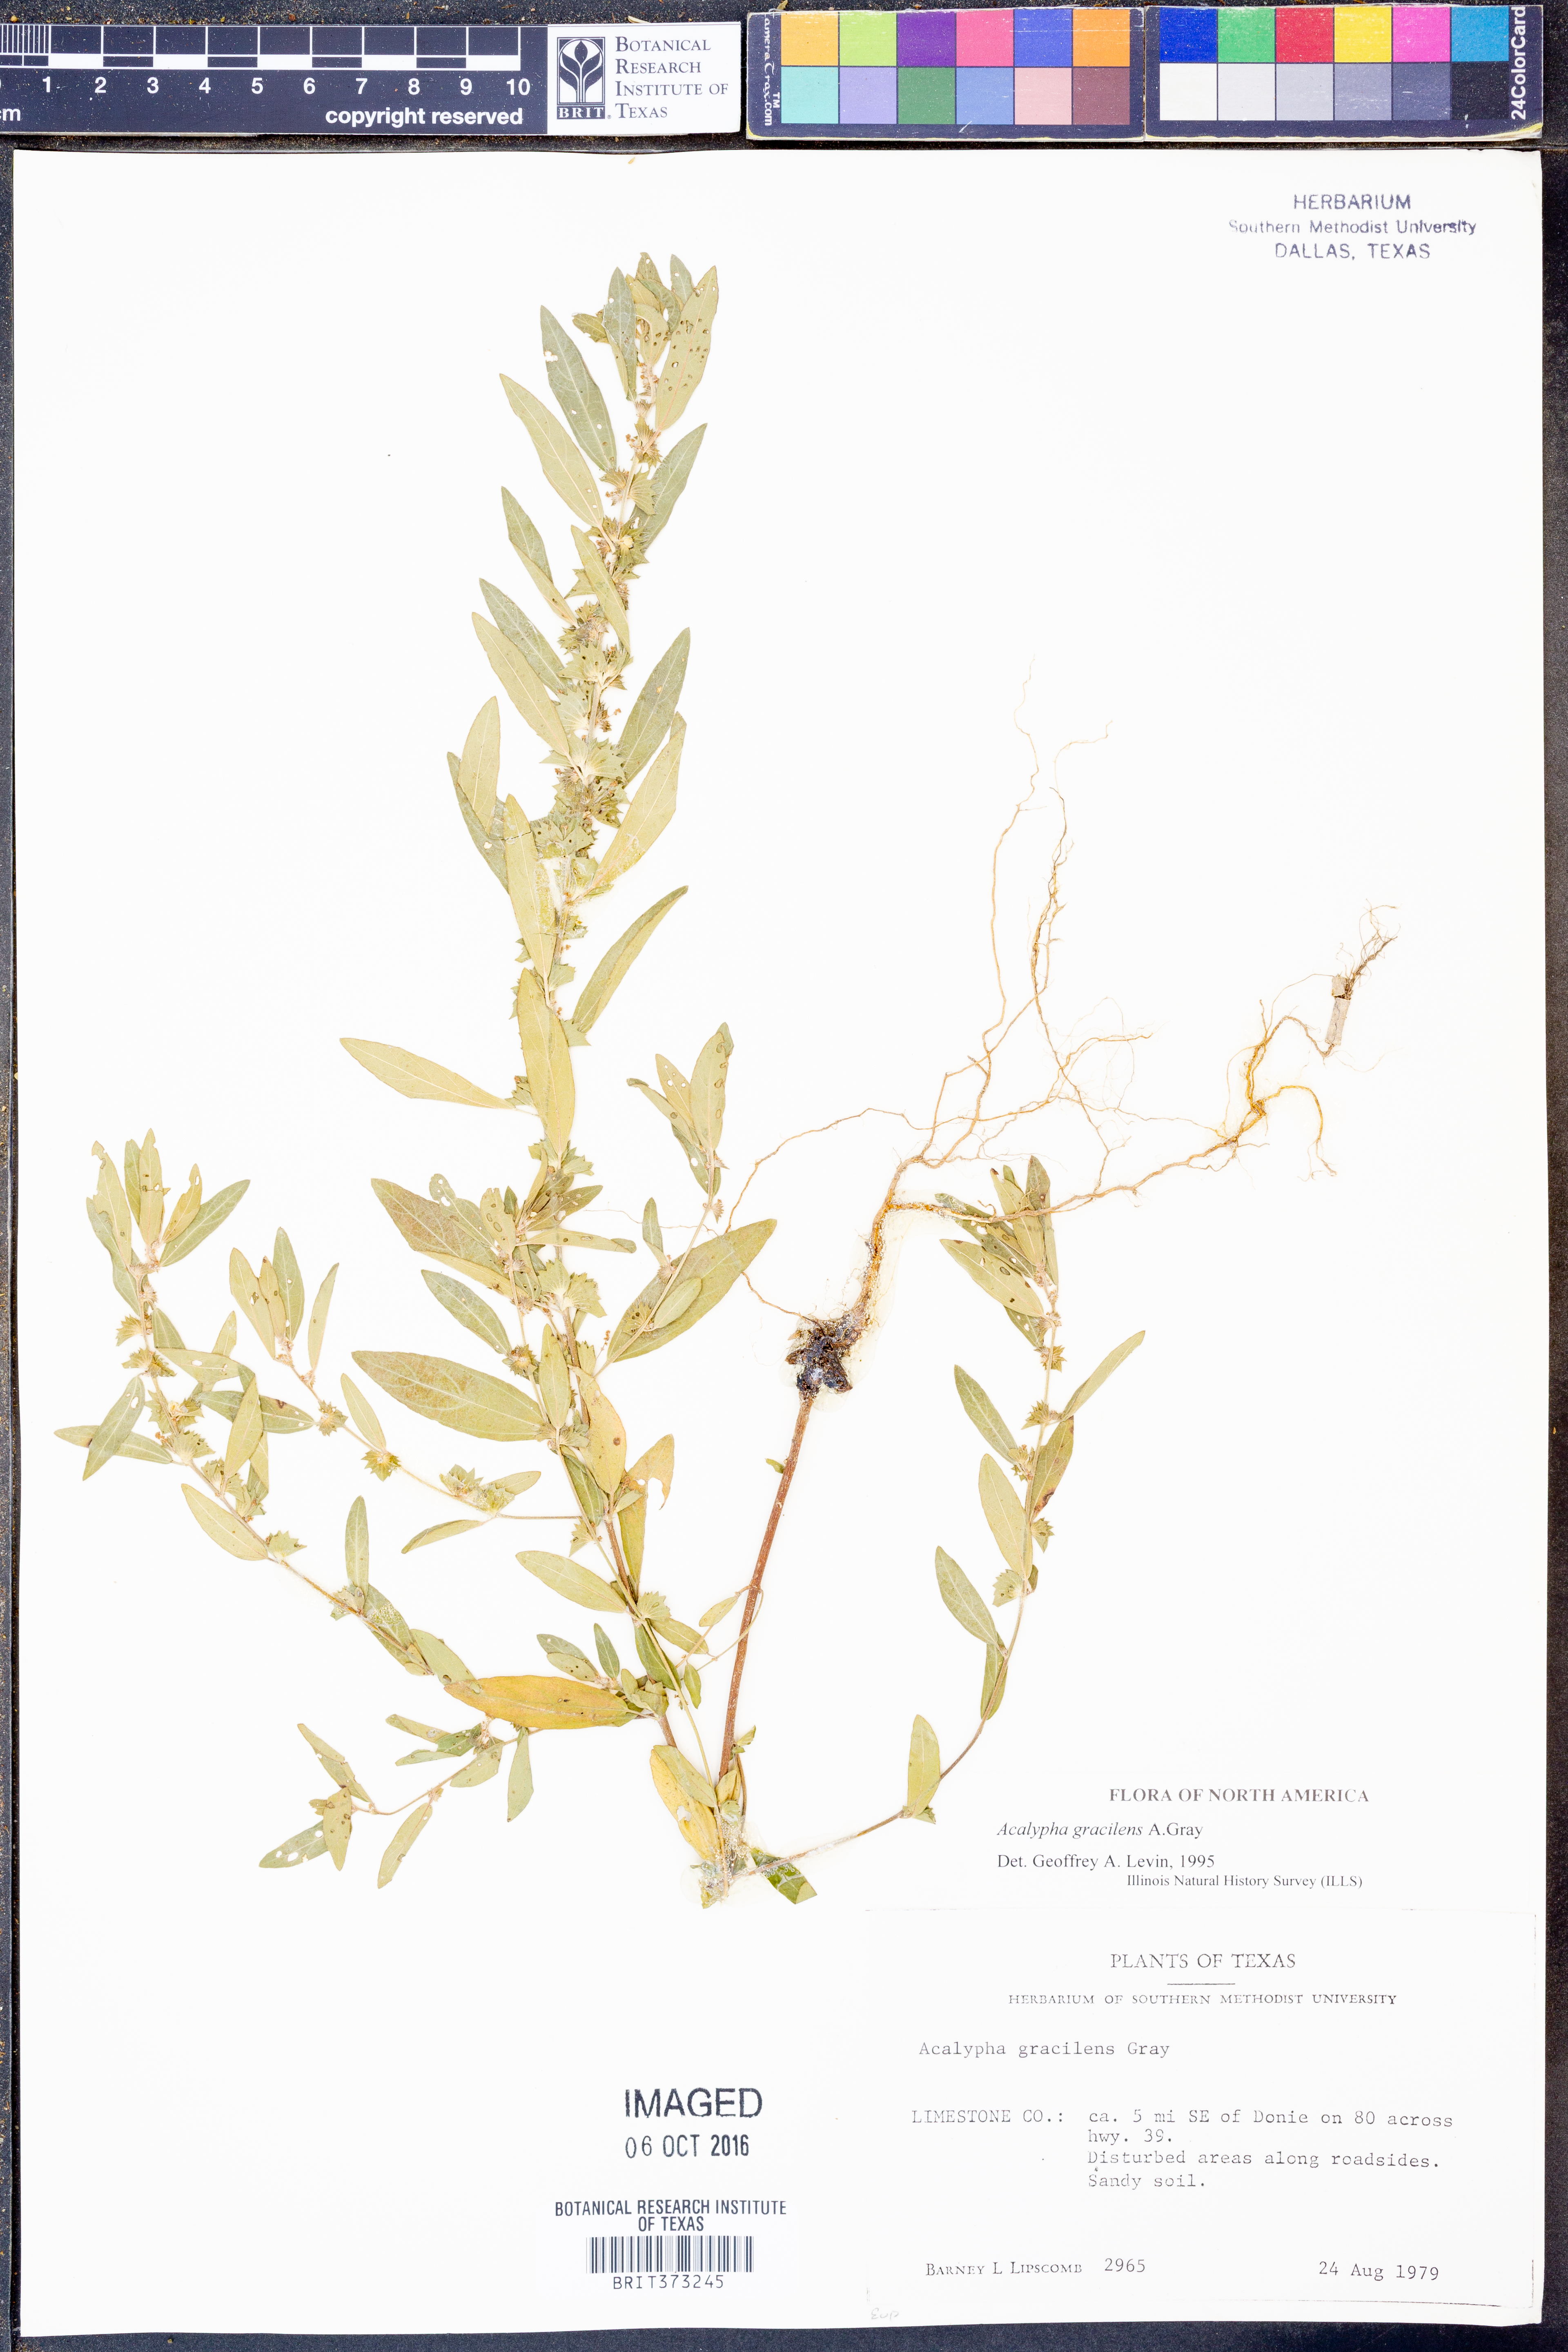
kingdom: Plantae
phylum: Tracheophyta
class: Magnoliopsida
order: Malpighiales
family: Euphorbiaceae
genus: Acalypha
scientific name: Acalypha gracilens
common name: Slender three-seeded mercury
